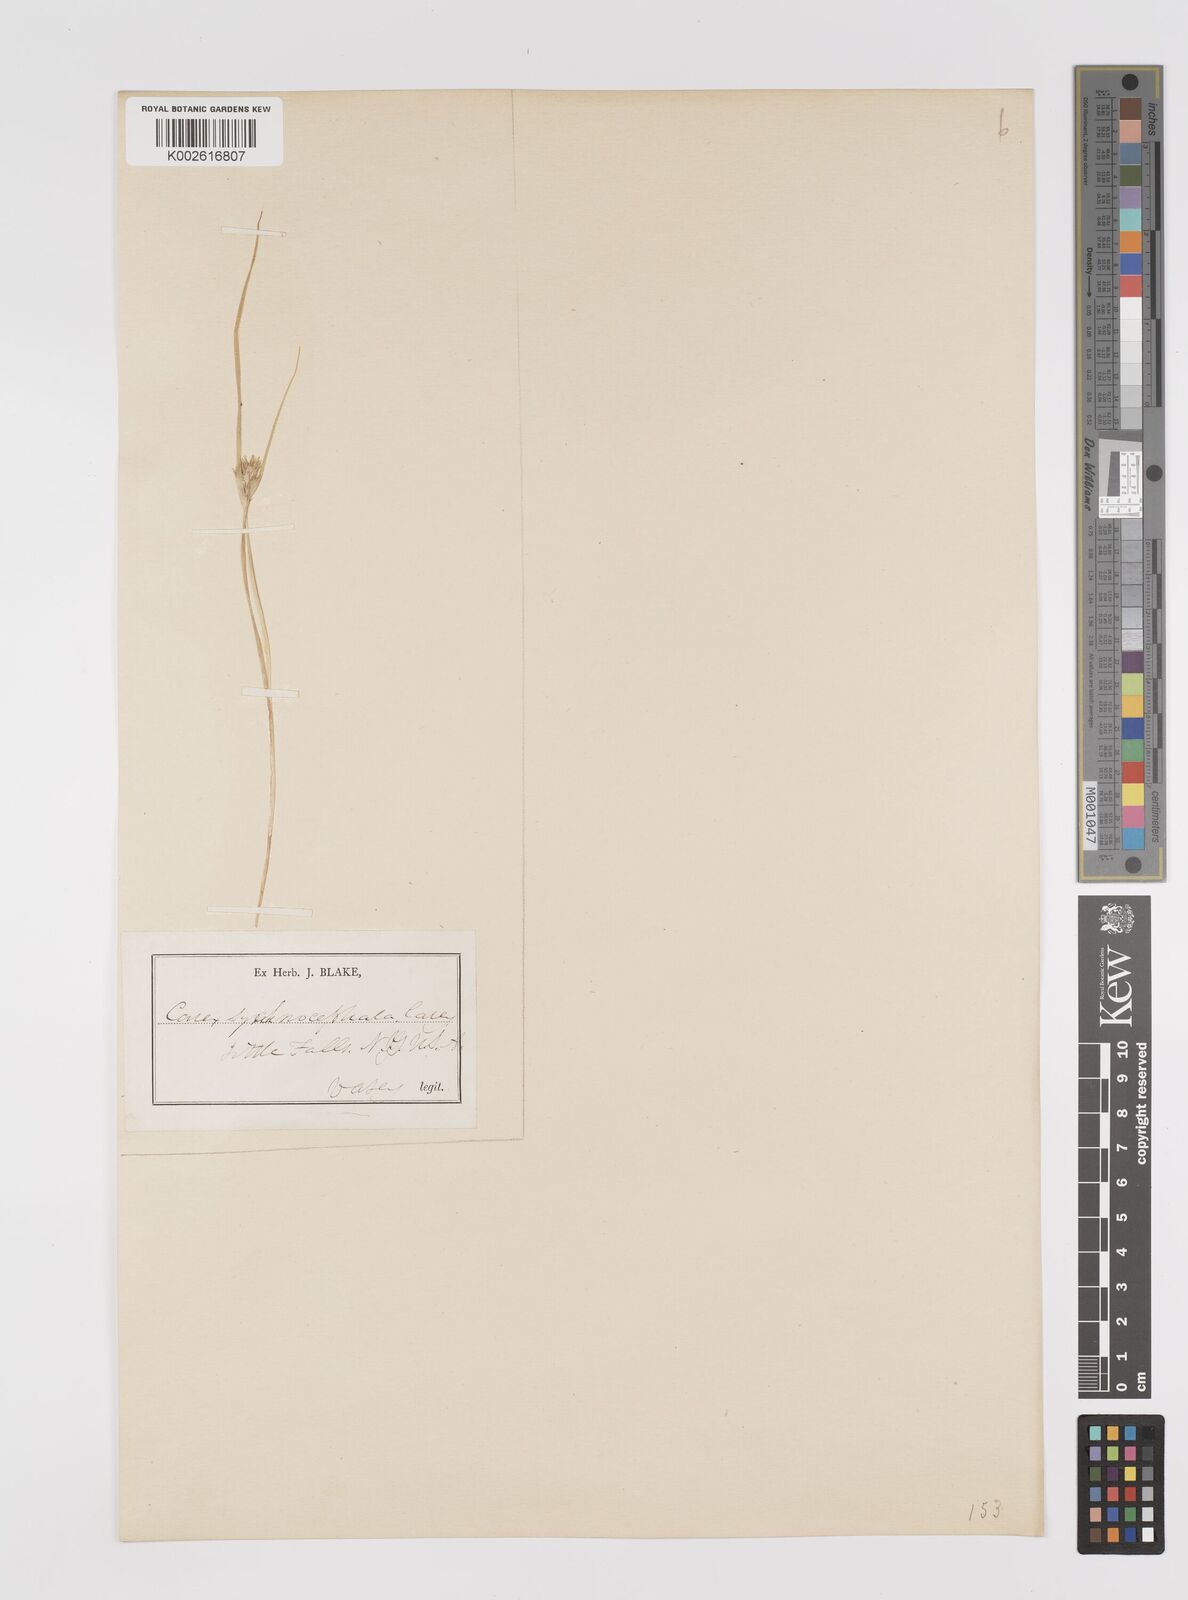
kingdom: Plantae
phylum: Tracheophyta
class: Liliopsida
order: Poales
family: Cyperaceae
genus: Carex
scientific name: Carex sychnocephala
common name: Dense long-beaked sedge
